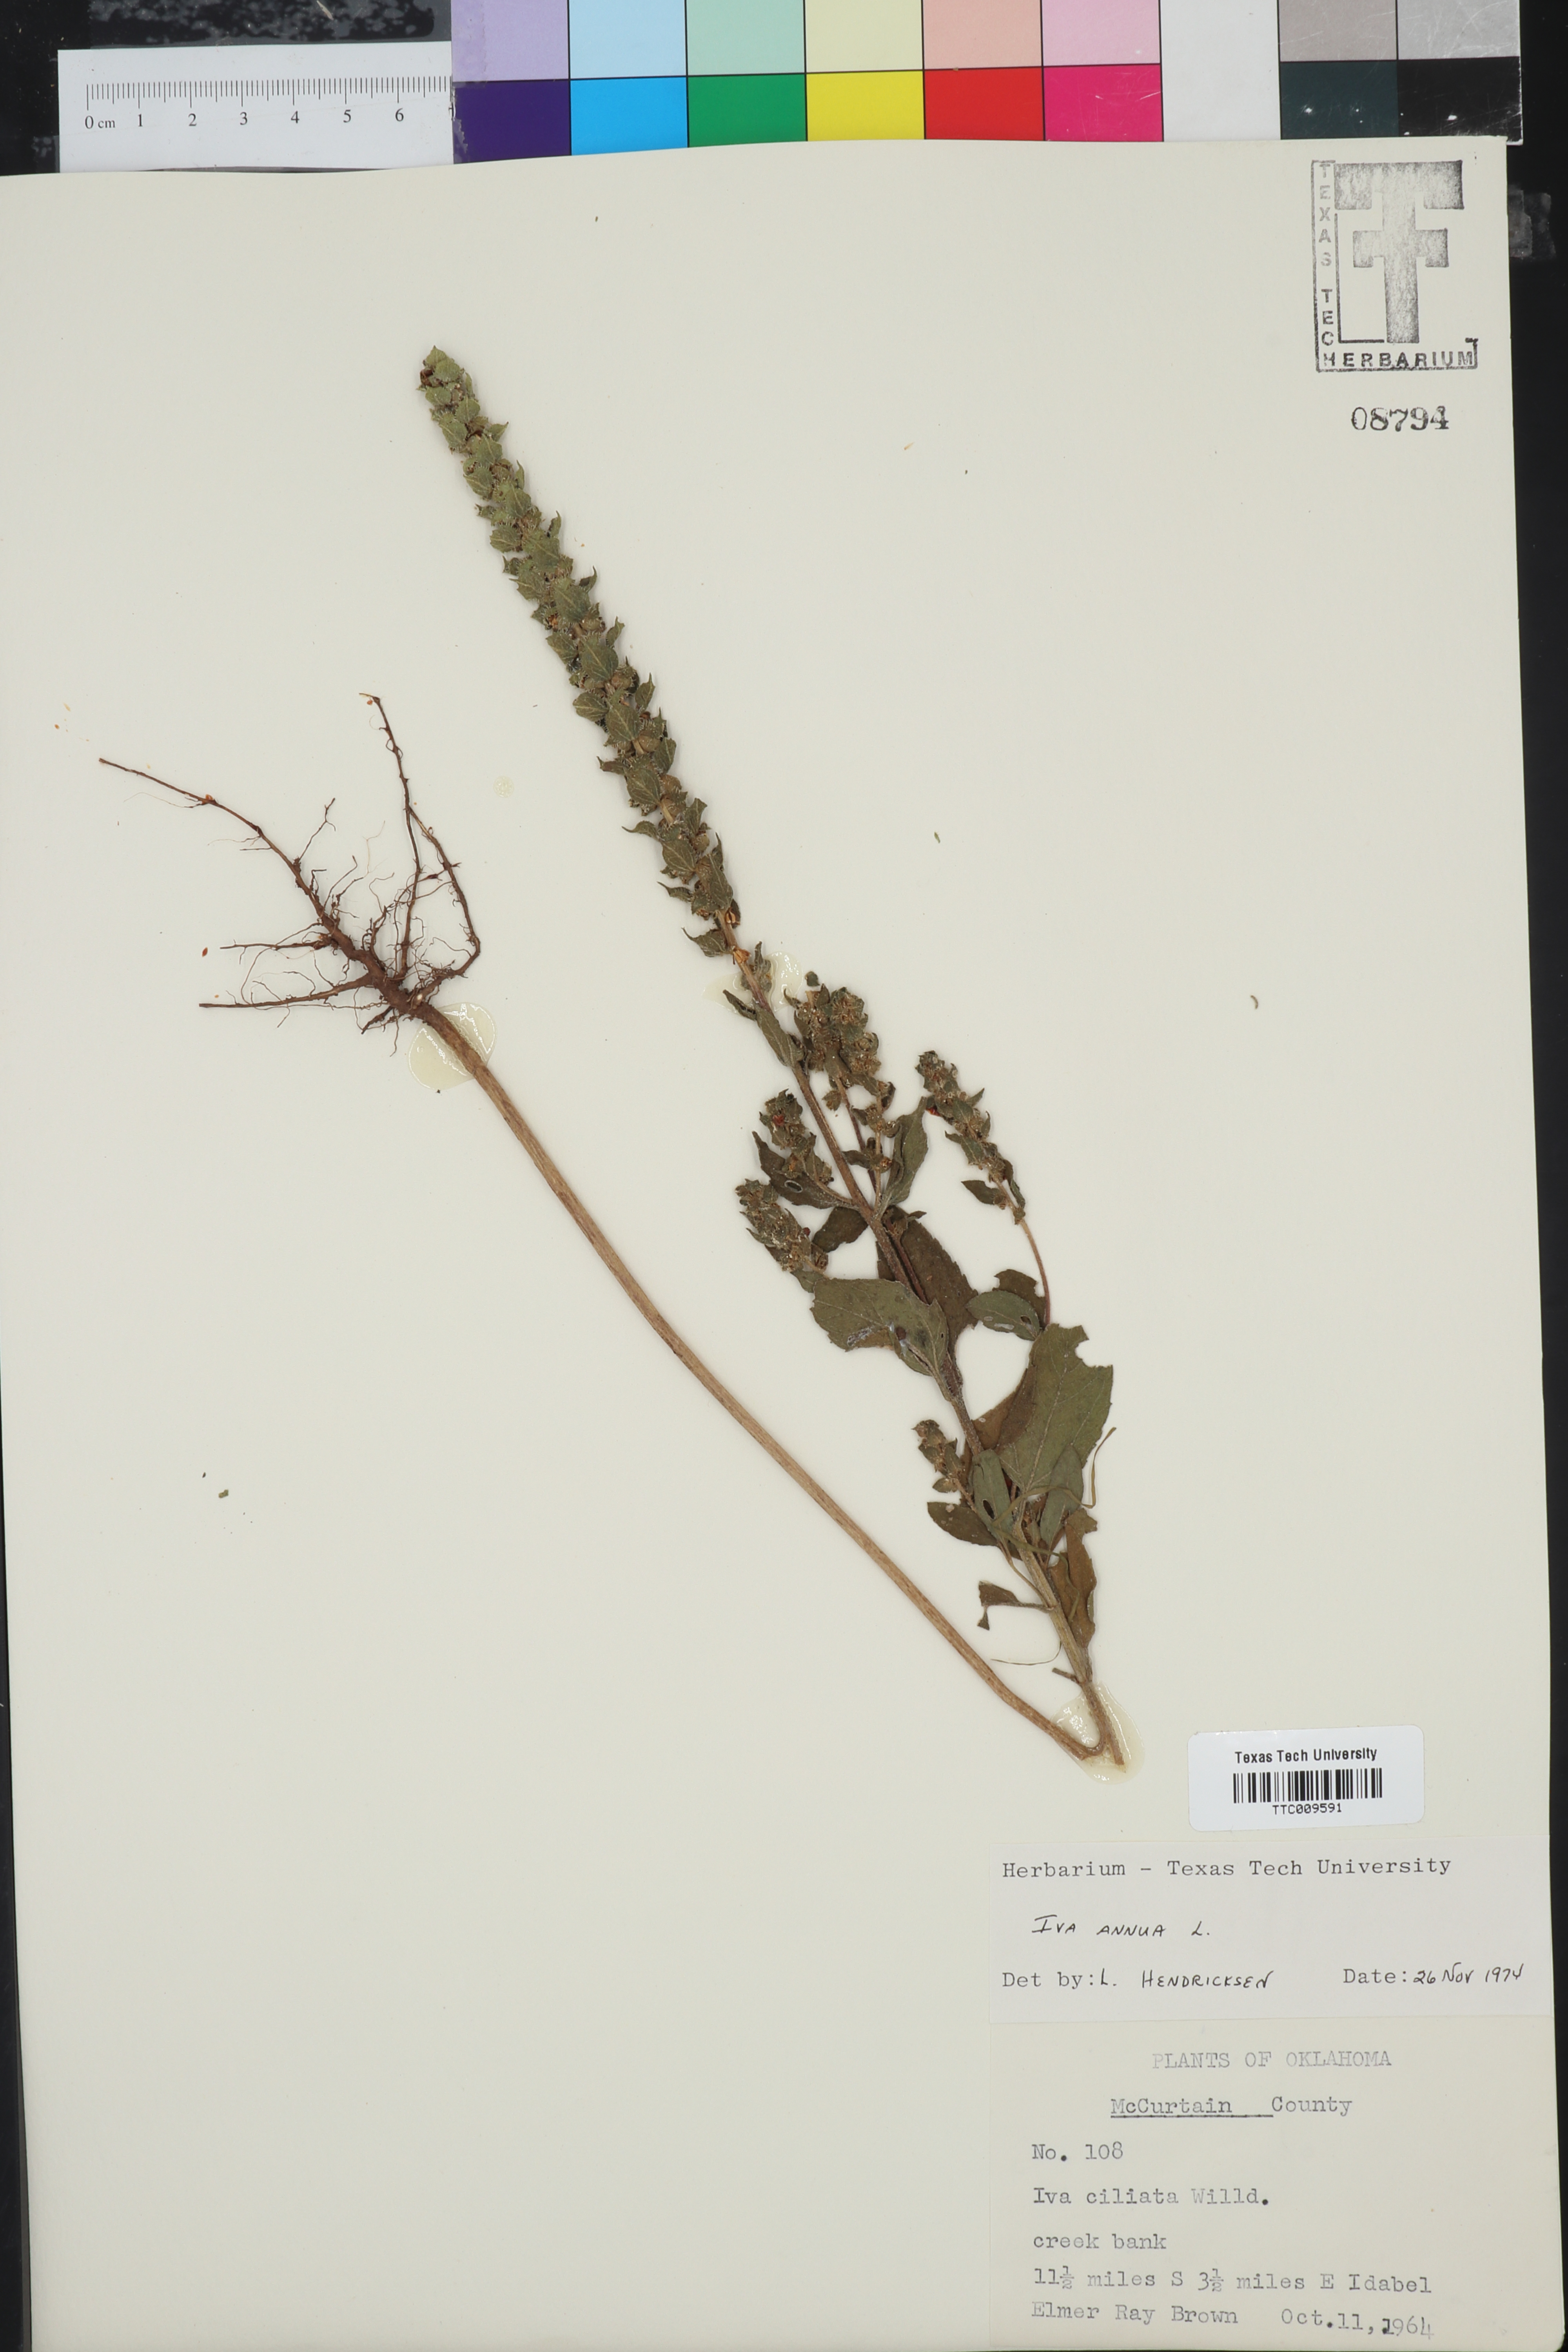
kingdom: Plantae
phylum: Tracheophyta
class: Magnoliopsida
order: Asterales
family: Asteraceae
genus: Iva
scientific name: Iva annua
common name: Marsh-elder
